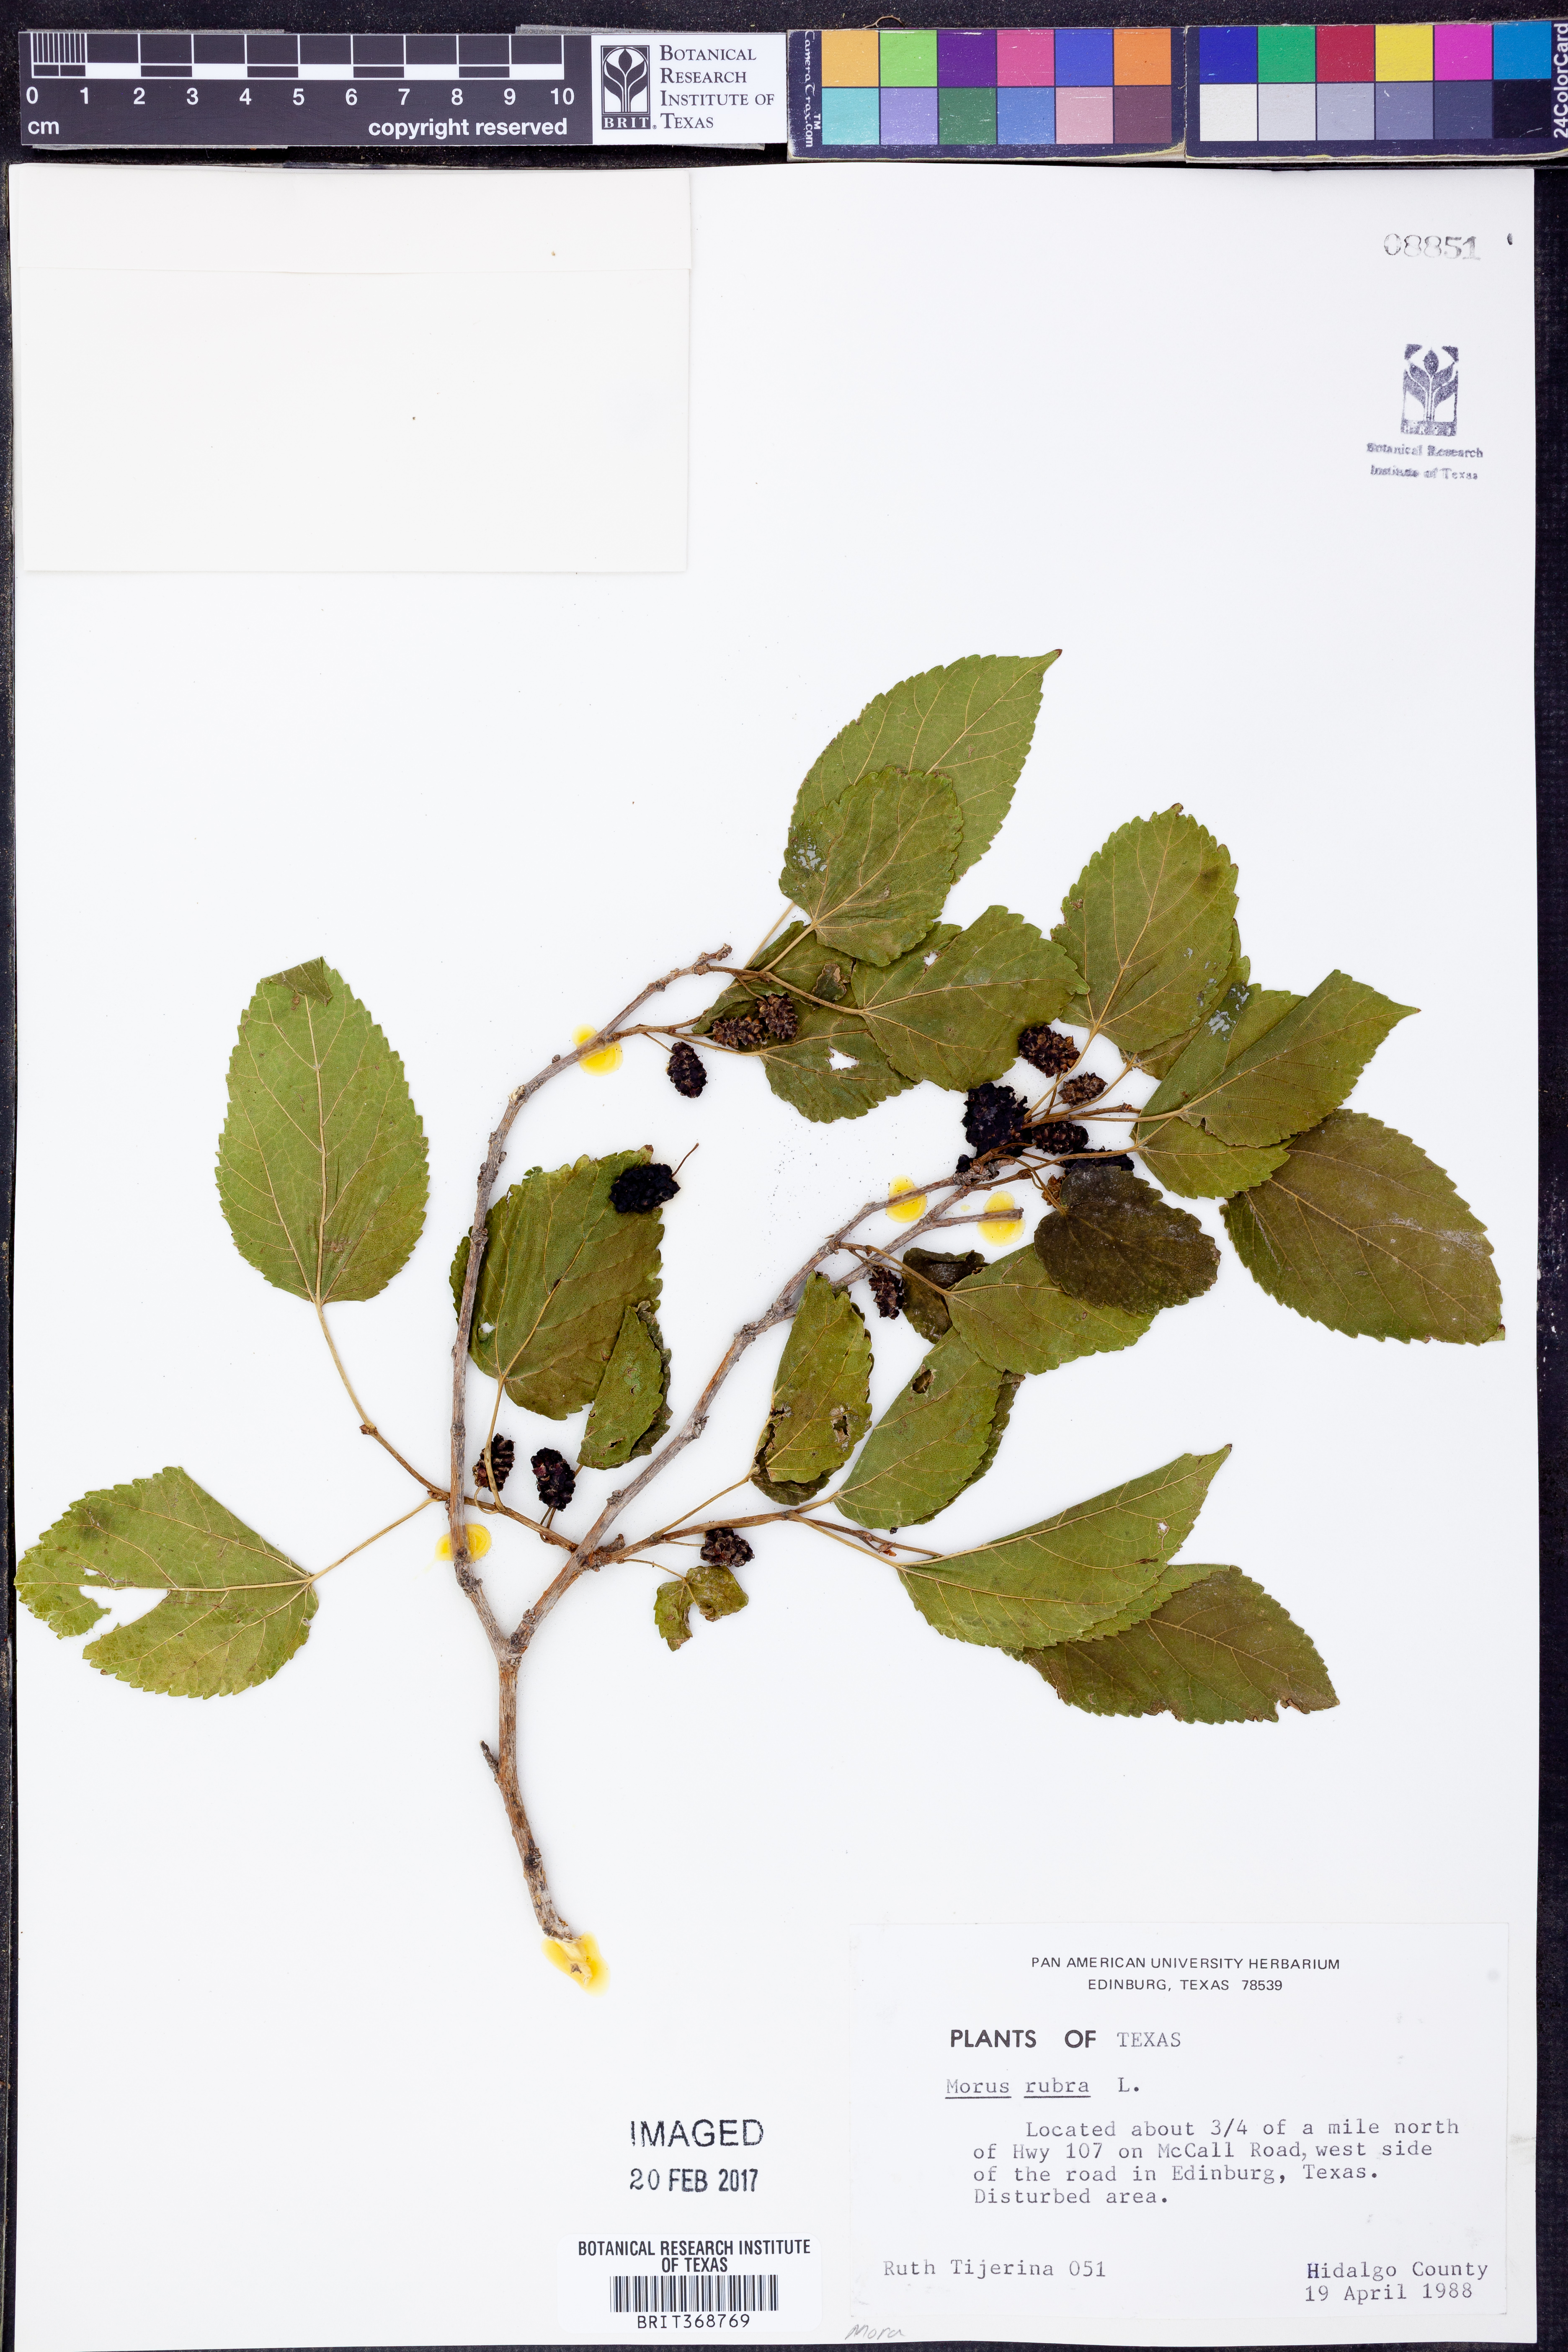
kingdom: Plantae
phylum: Tracheophyta
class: Magnoliopsida
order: Rosales
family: Moraceae
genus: Morus
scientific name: Morus rubra
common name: Red mulberry
